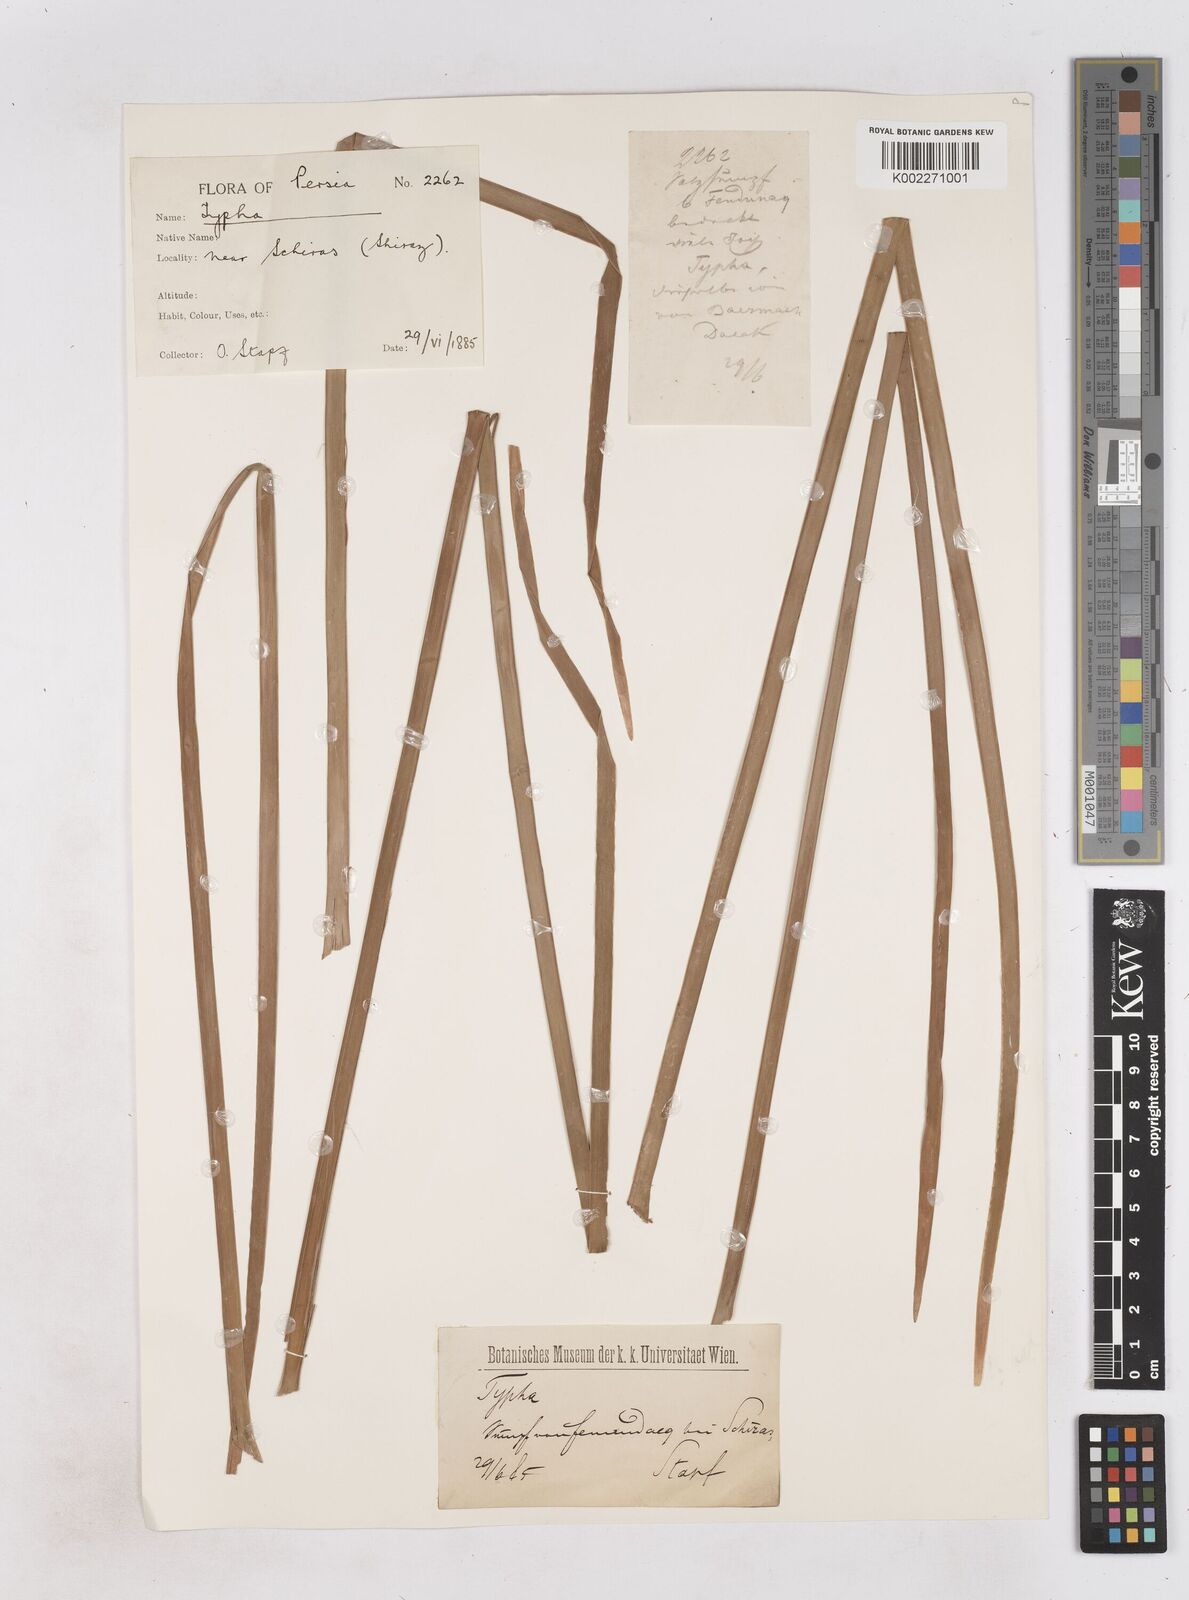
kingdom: Plantae
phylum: Tracheophyta
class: Liliopsida
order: Poales
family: Typhaceae
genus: Typha
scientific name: Typha domingensis
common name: Southern cattail
